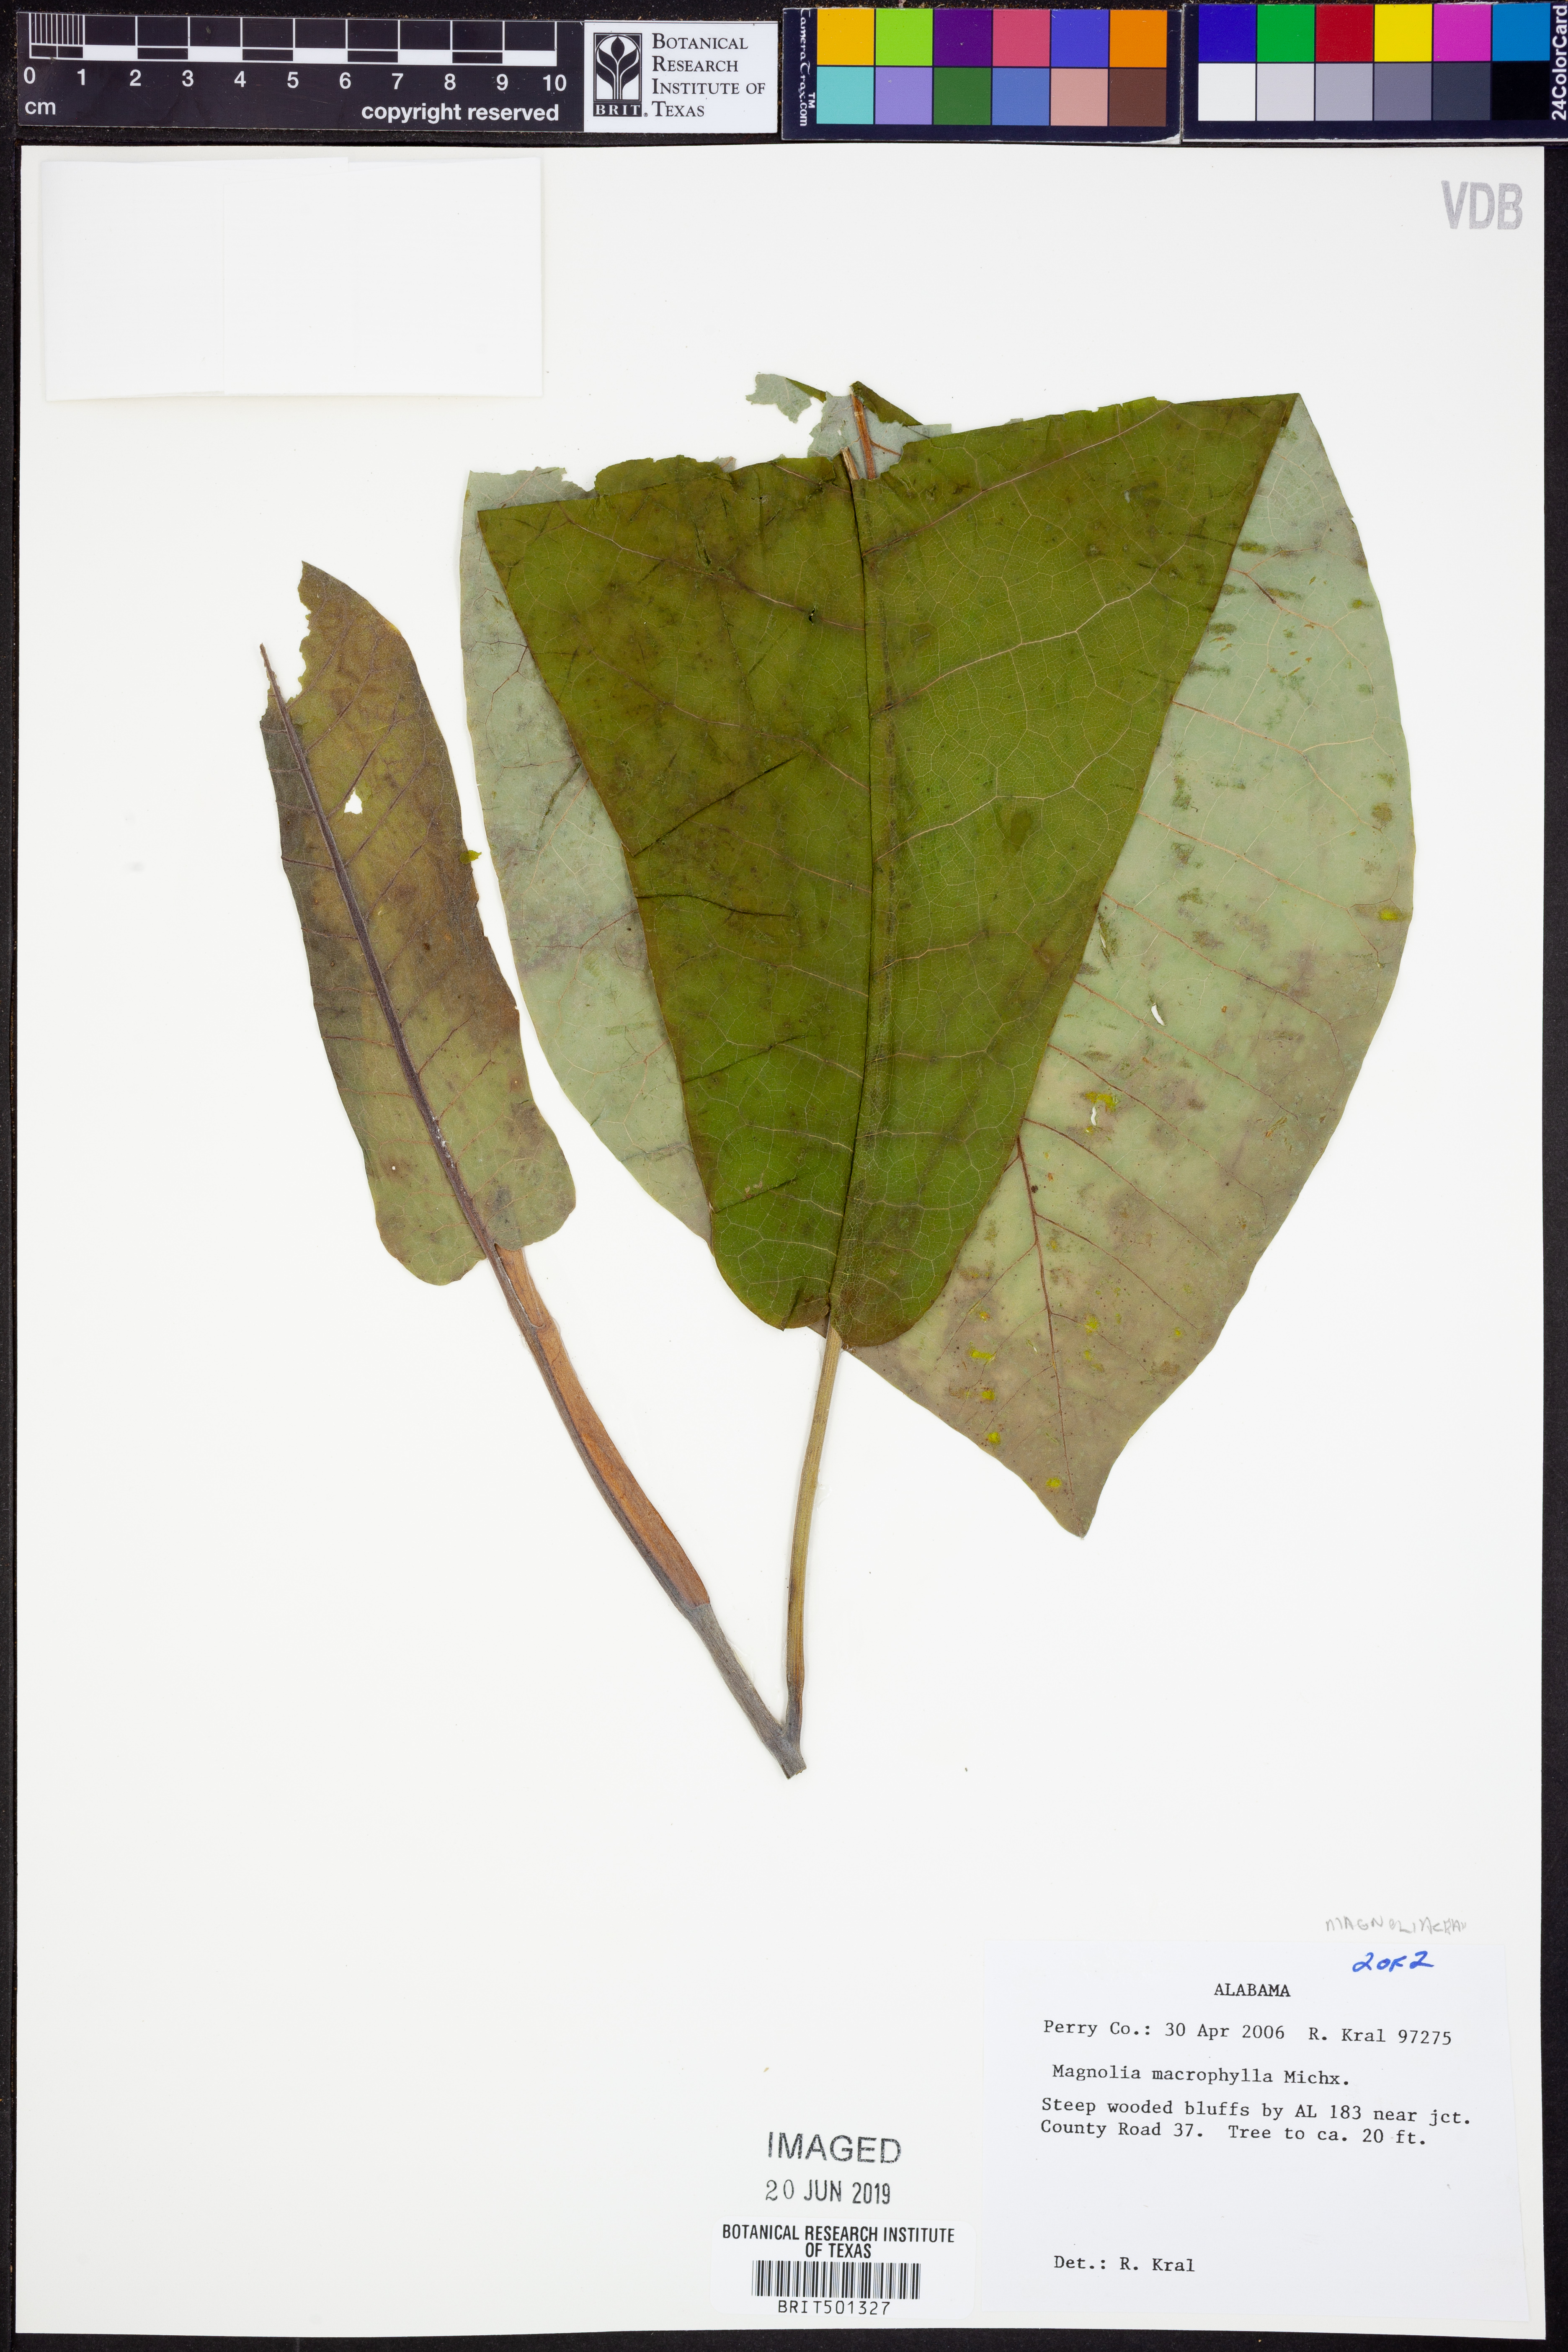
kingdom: Plantae
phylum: Tracheophyta
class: Magnoliopsida
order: Magnoliales
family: Magnoliaceae
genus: Magnolia
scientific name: Magnolia macrophylla
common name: Big-leaf magnolia
